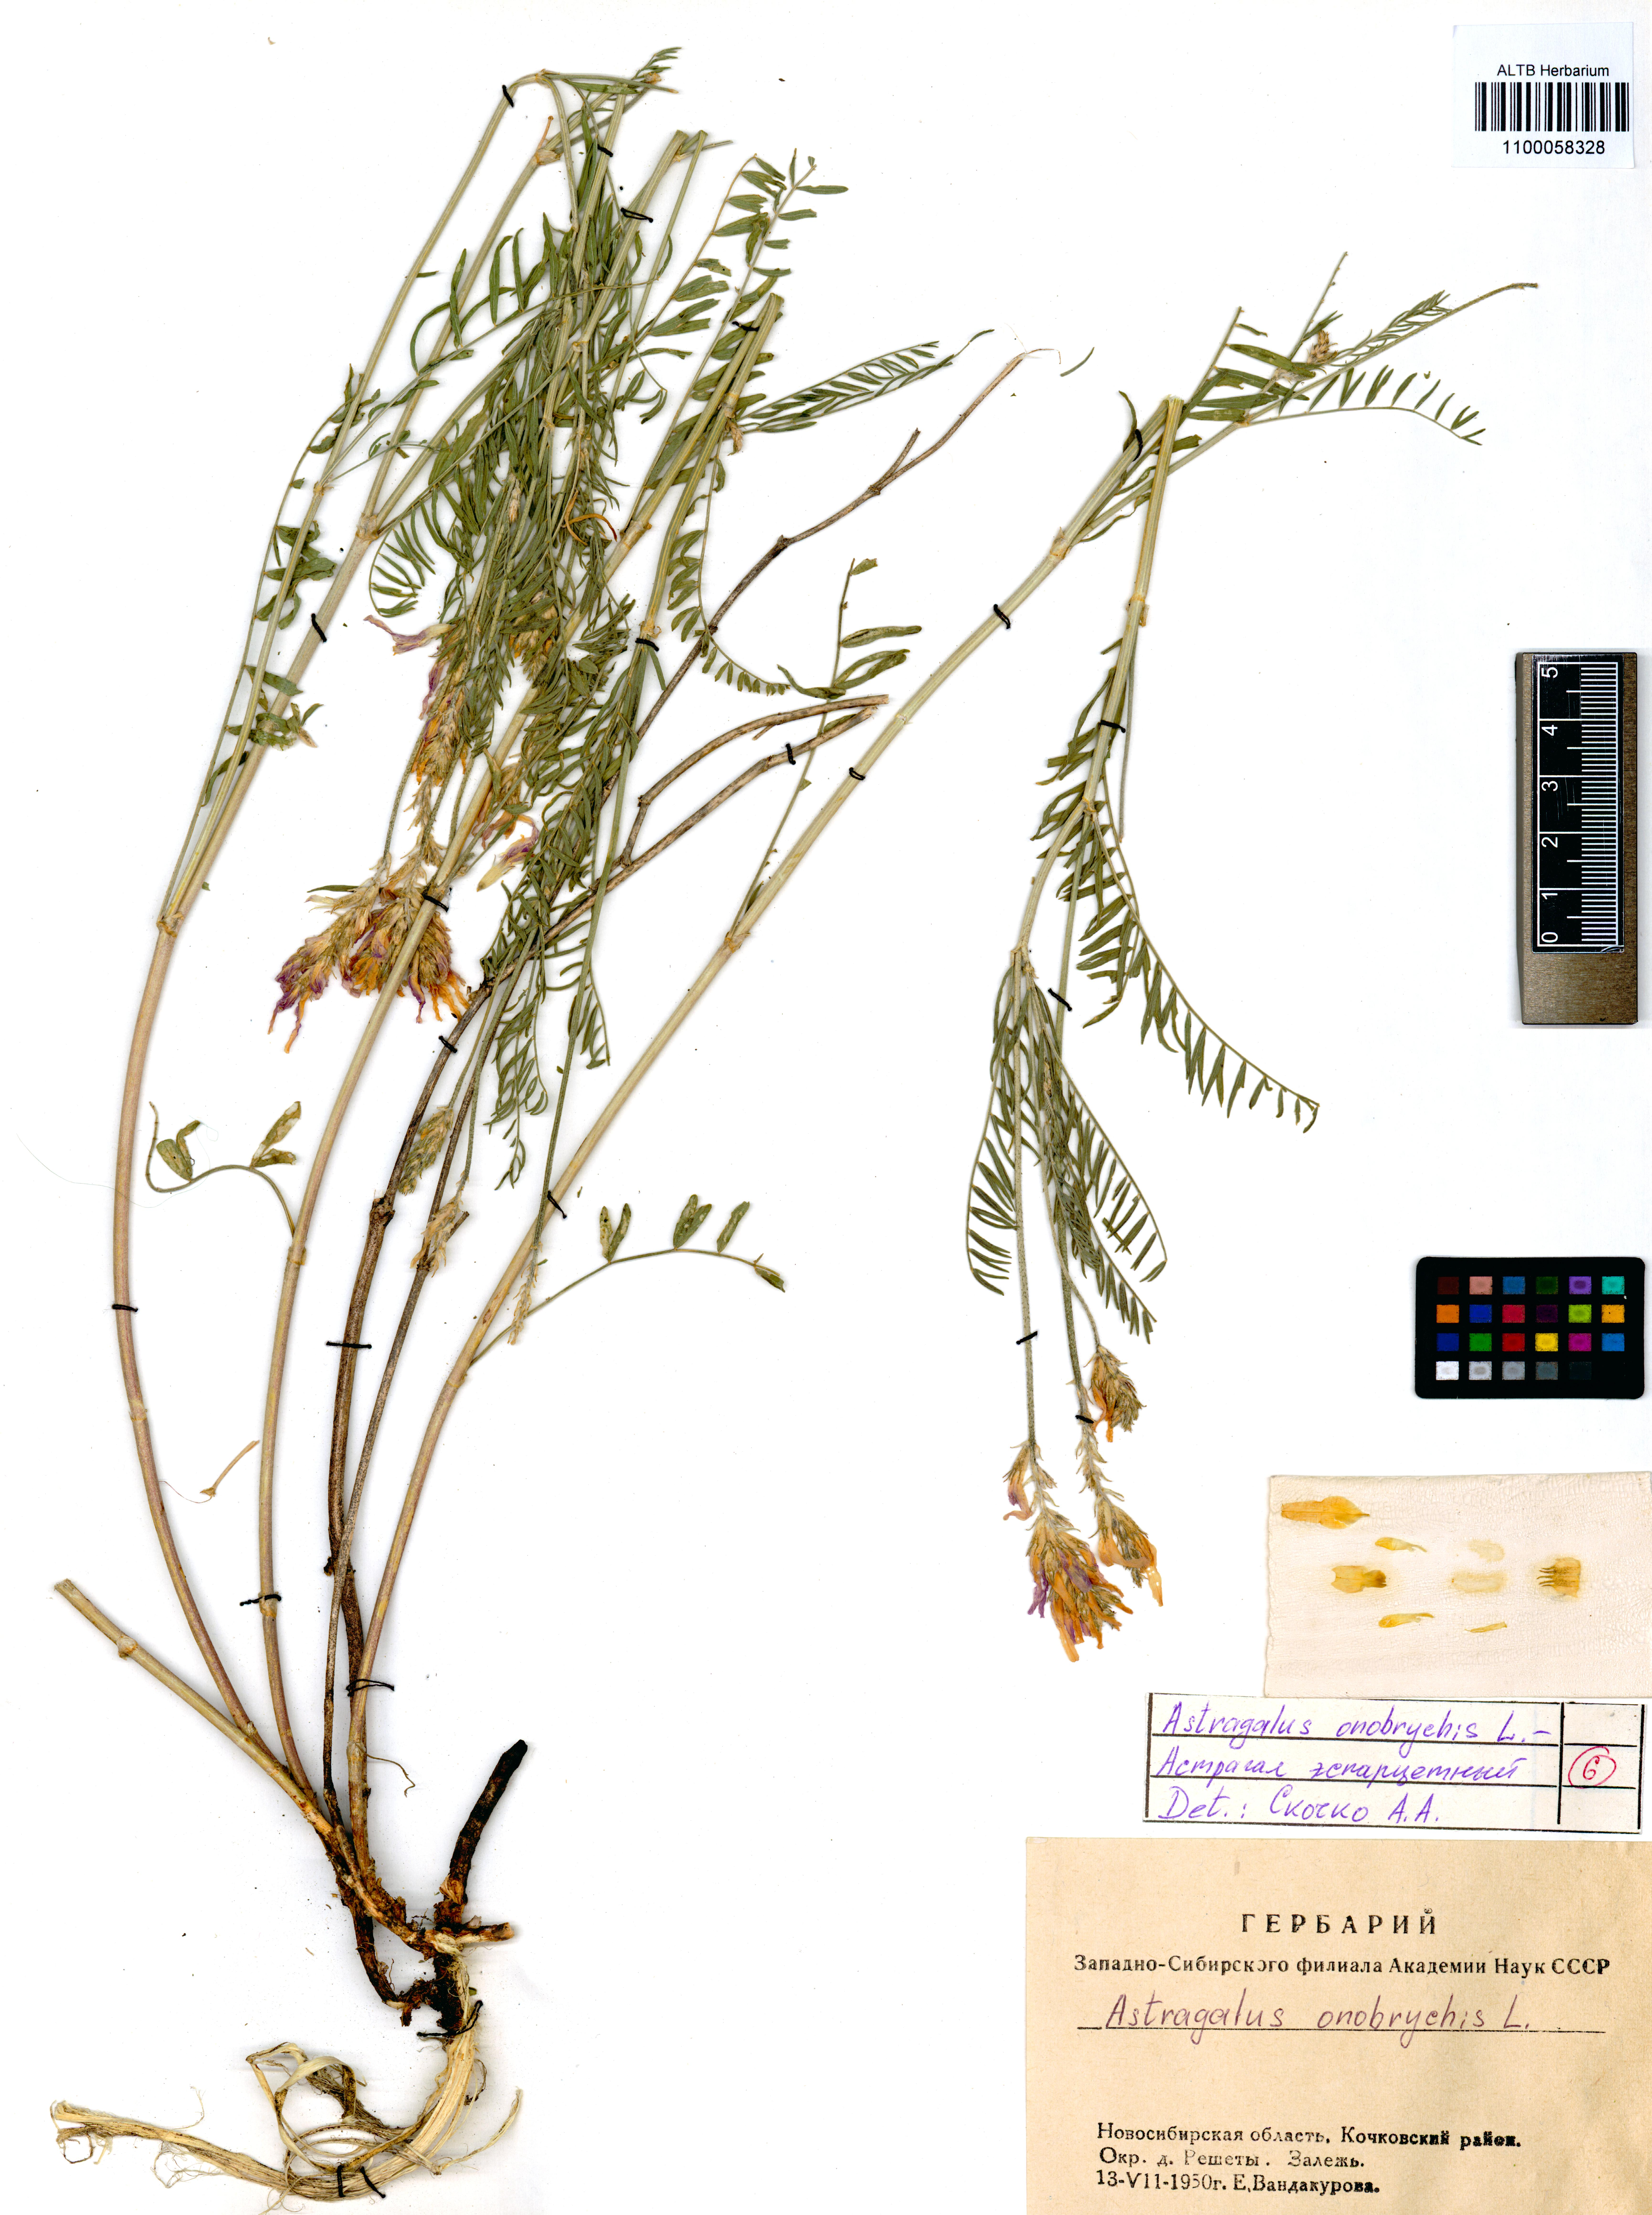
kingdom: Plantae
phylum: Tracheophyta
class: Magnoliopsida
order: Fabales
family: Fabaceae
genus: Astragalus
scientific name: Astragalus onobrychis
